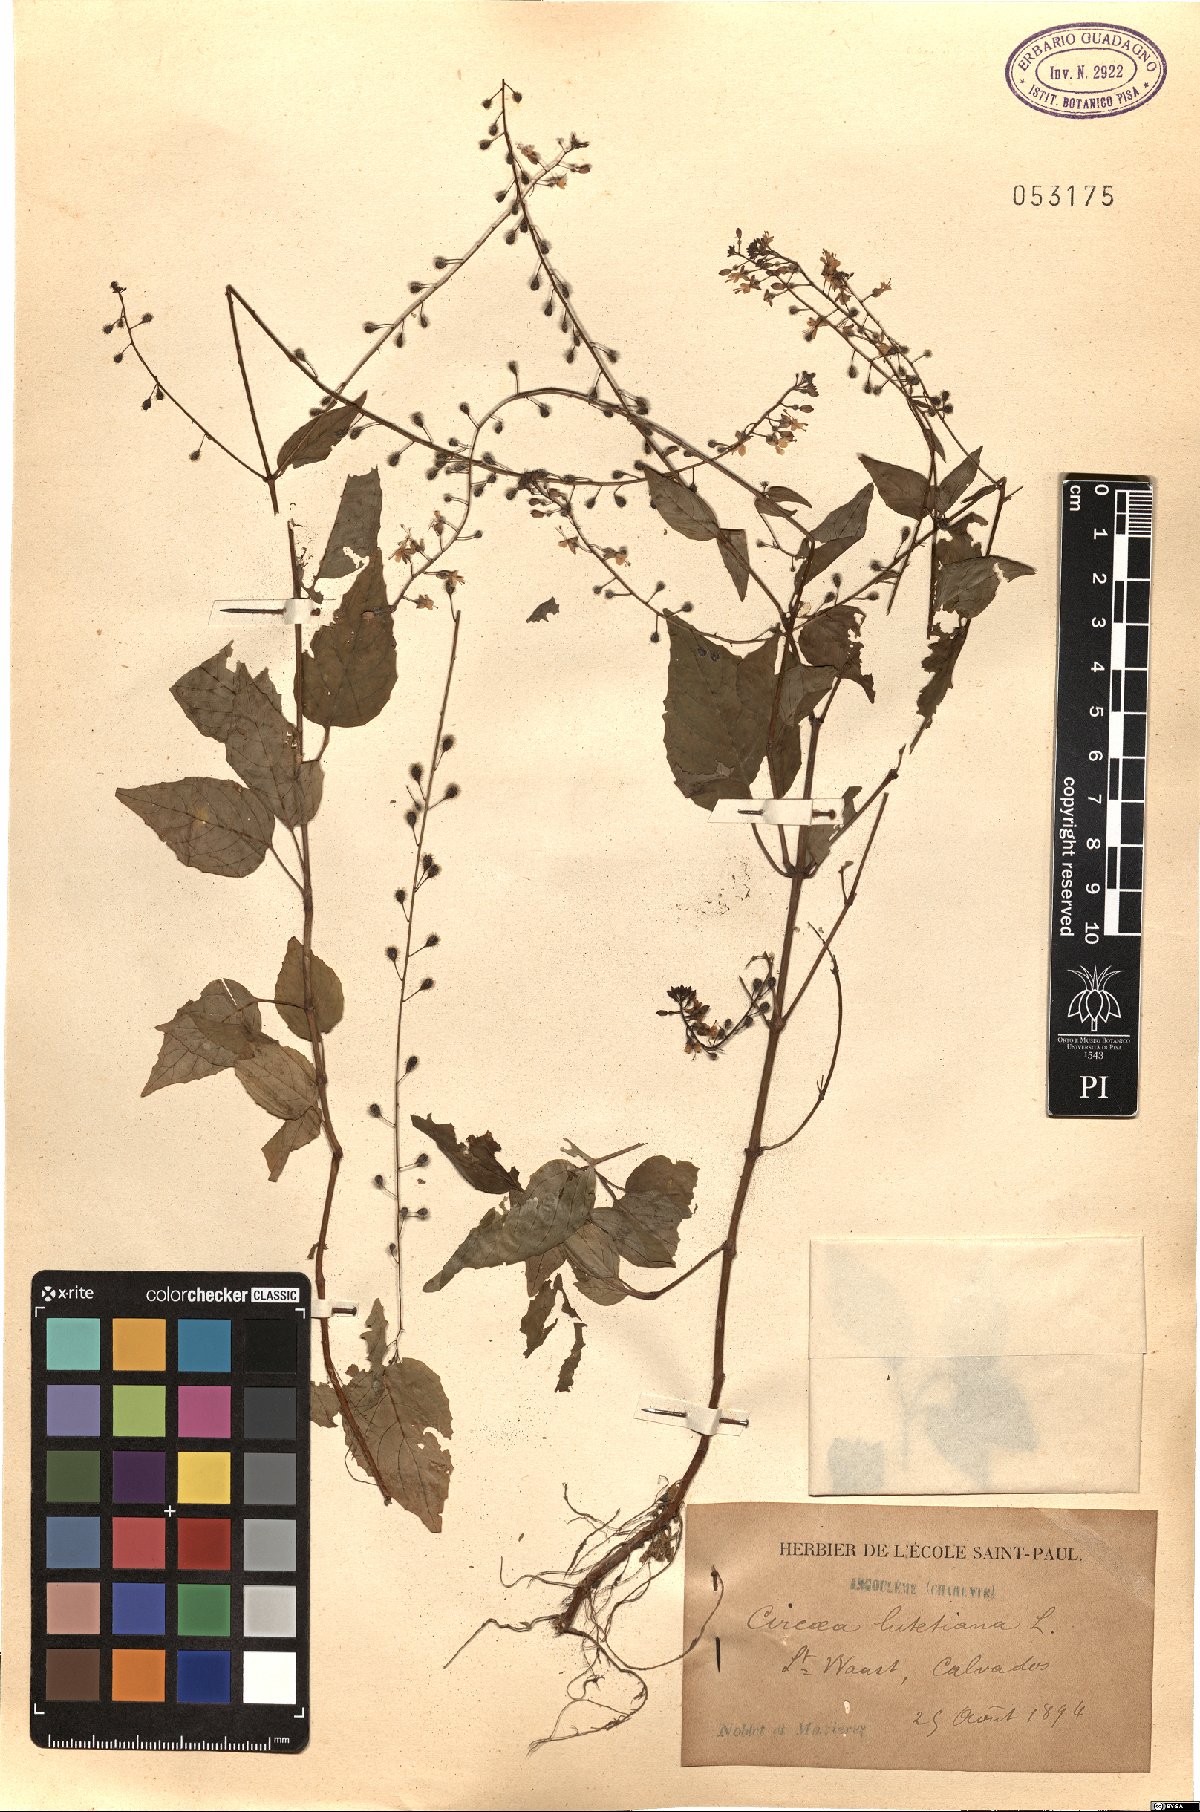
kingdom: Plantae
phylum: Tracheophyta
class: Magnoliopsida
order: Myrtales
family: Onagraceae
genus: Circaea
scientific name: Circaea lutetiana
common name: Enchanter's-nightshade
